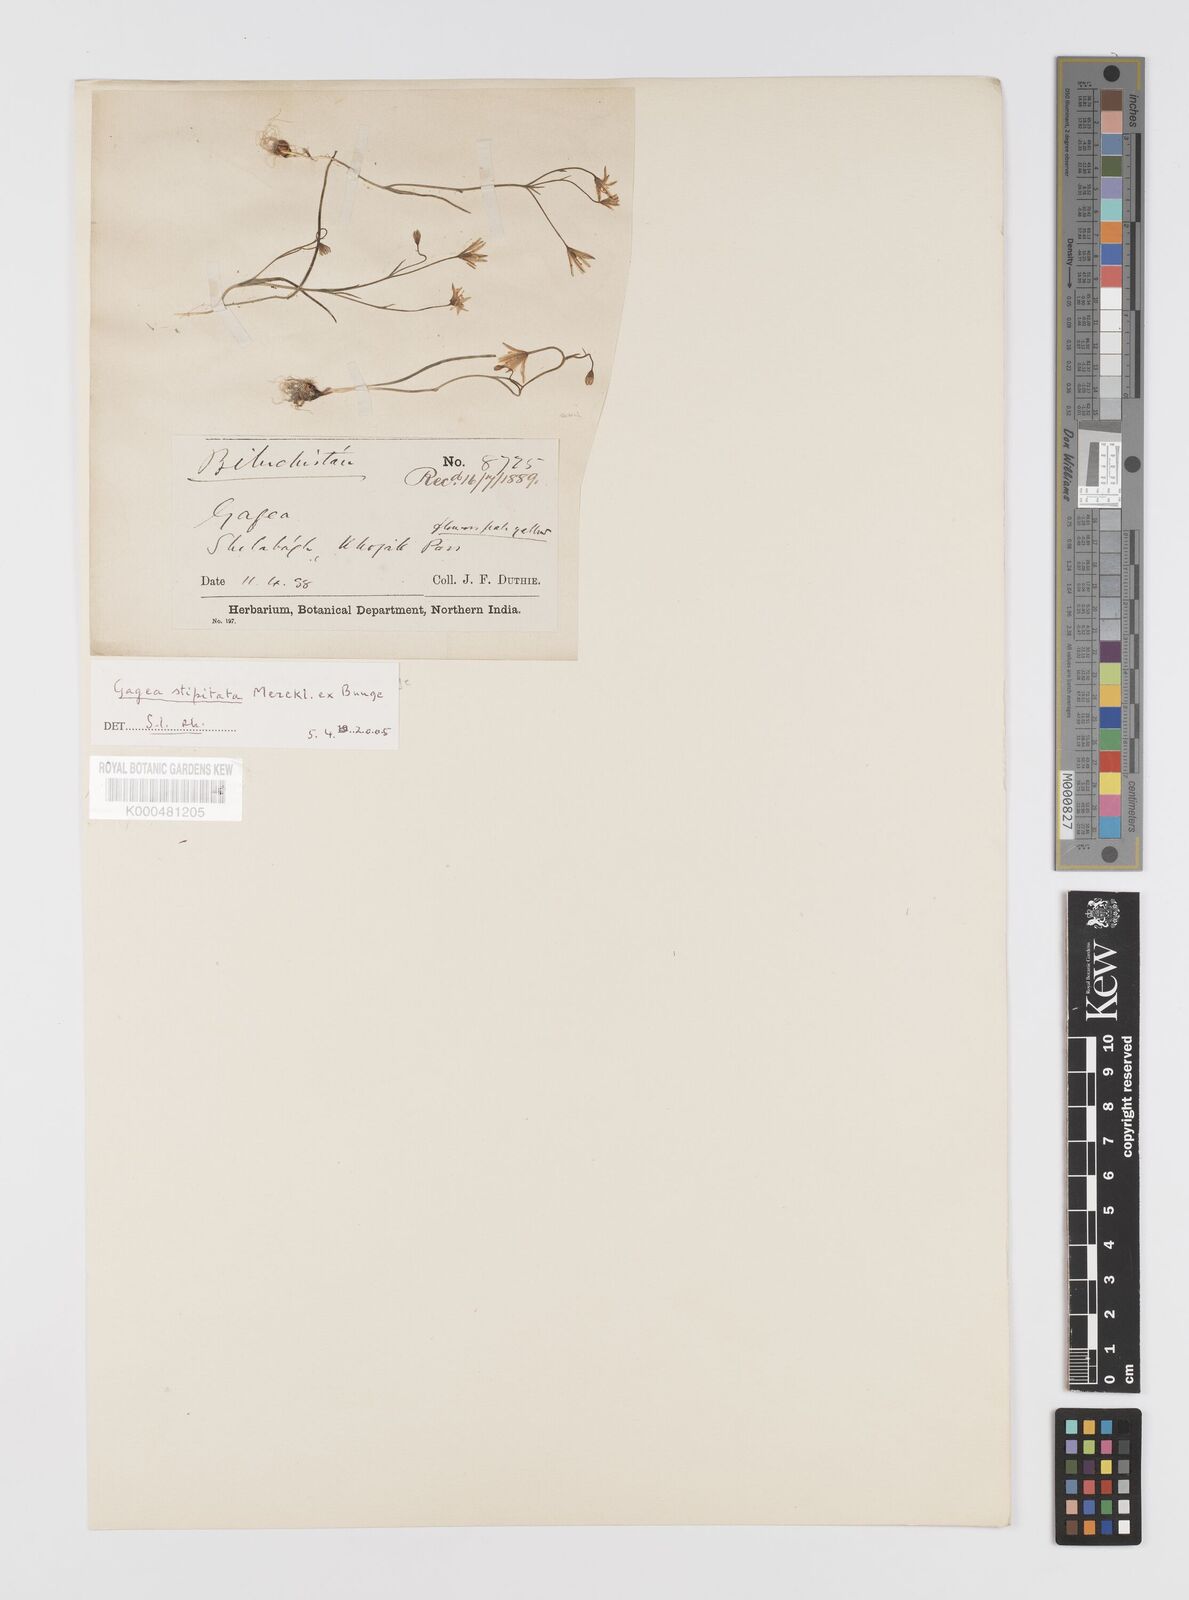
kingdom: Plantae
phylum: Tracheophyta
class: Liliopsida
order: Liliales
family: Liliaceae
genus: Gagea
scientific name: Gagea kunawurensis
